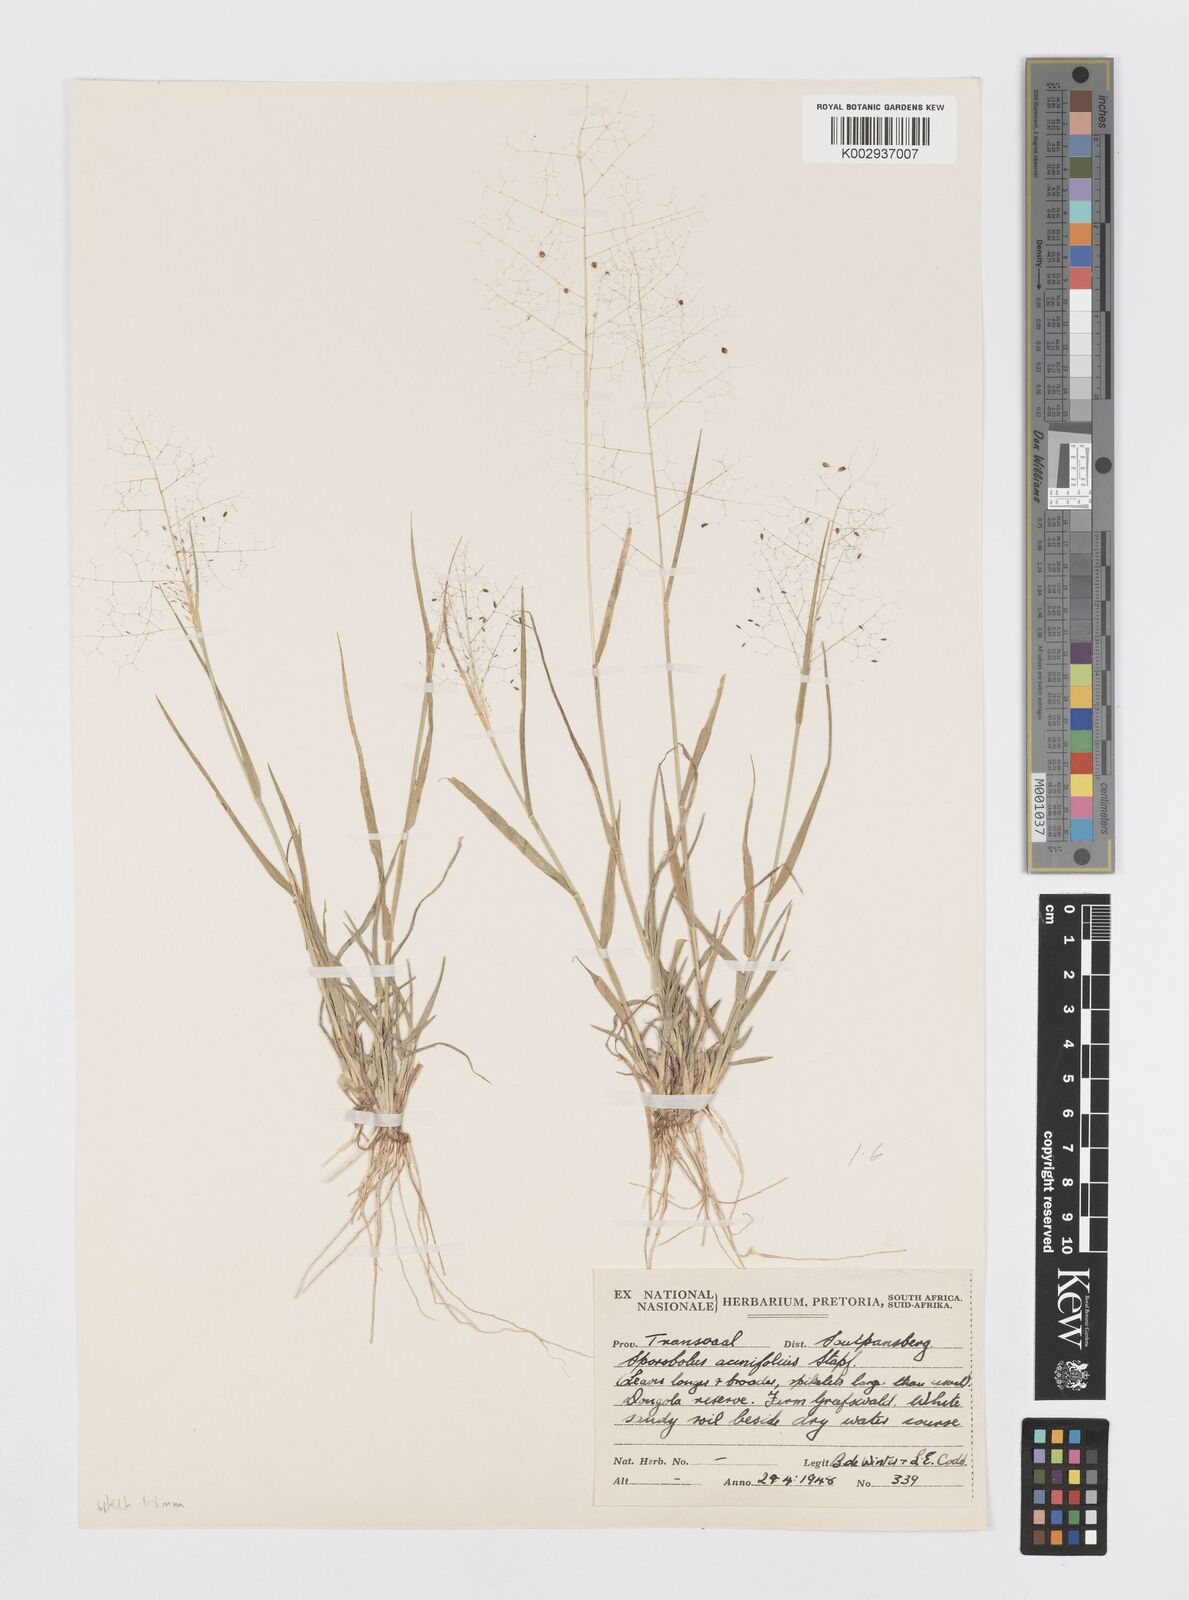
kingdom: Plantae
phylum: Tracheophyta
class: Liliopsida
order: Poales
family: Poaceae
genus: Sporobolus
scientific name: Sporobolus salsus
